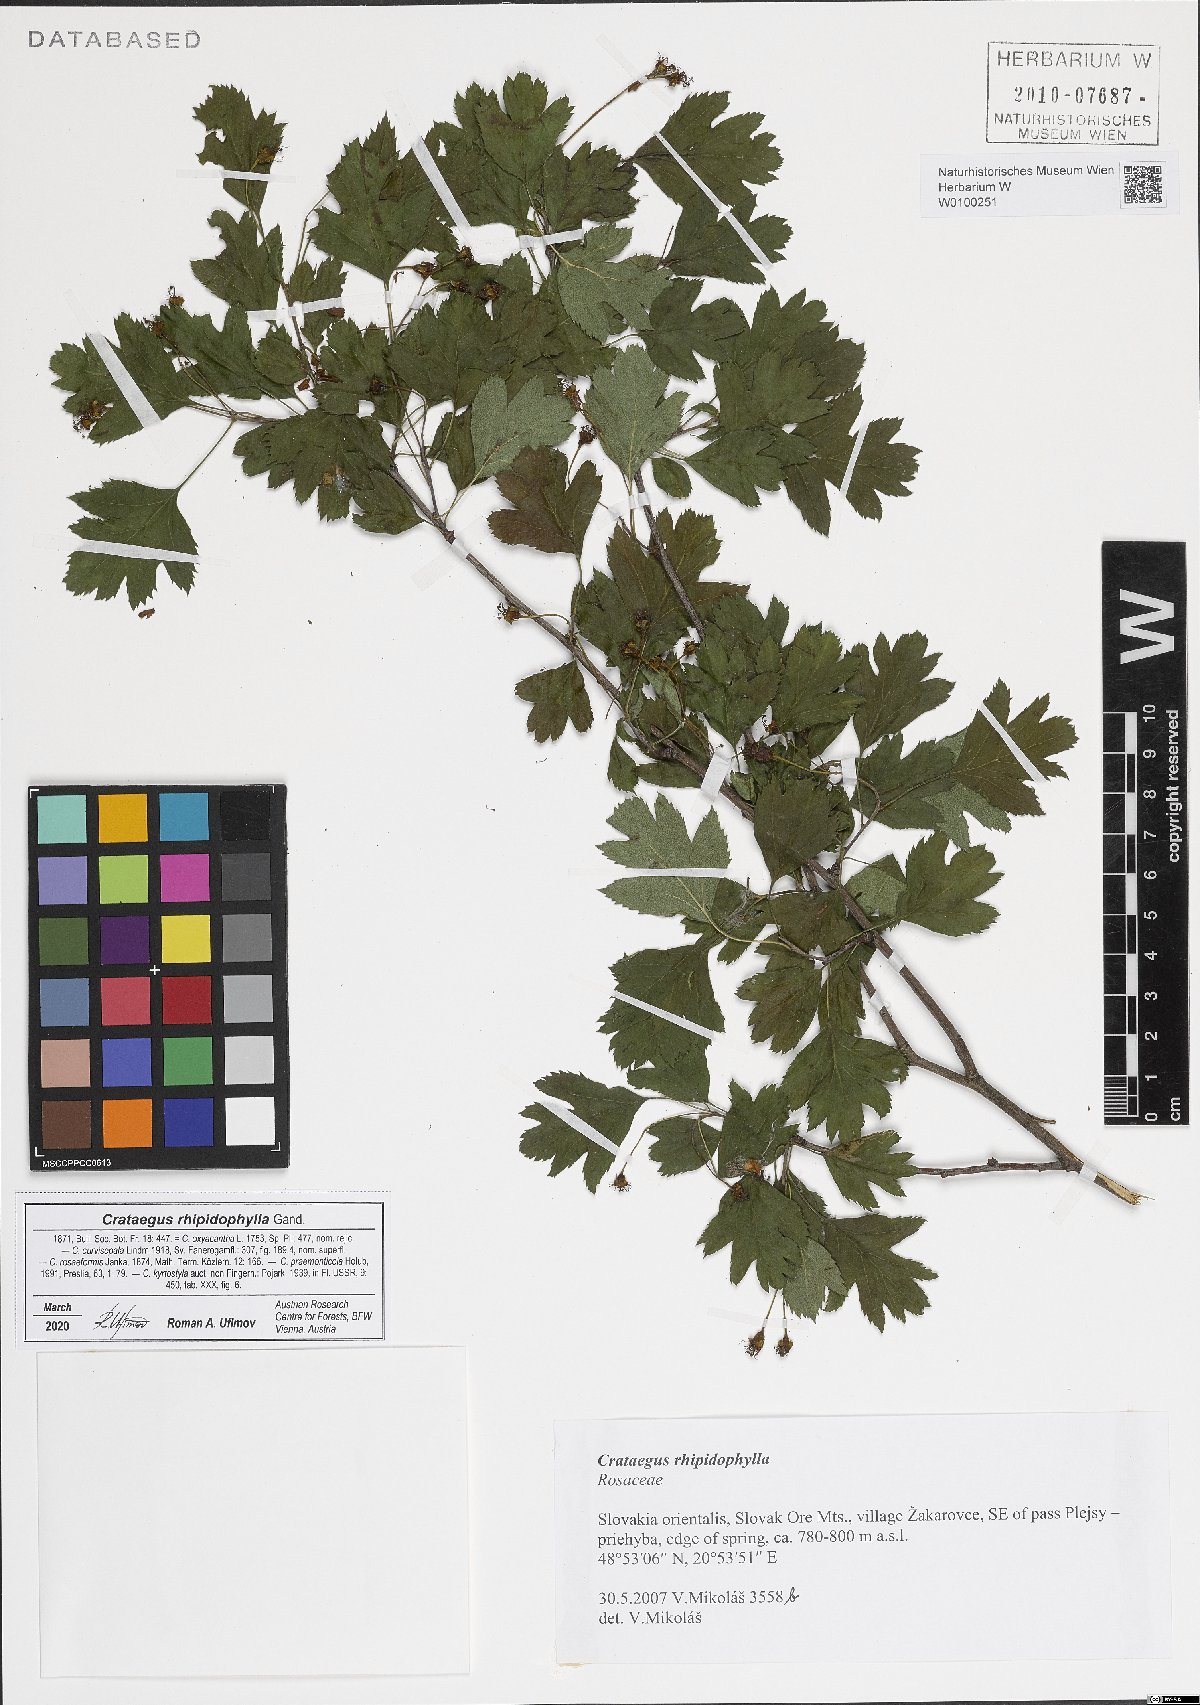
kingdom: Plantae
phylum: Tracheophyta
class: Magnoliopsida
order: Rosales
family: Rosaceae
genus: Crataegus
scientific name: Crataegus rhipidophylla
